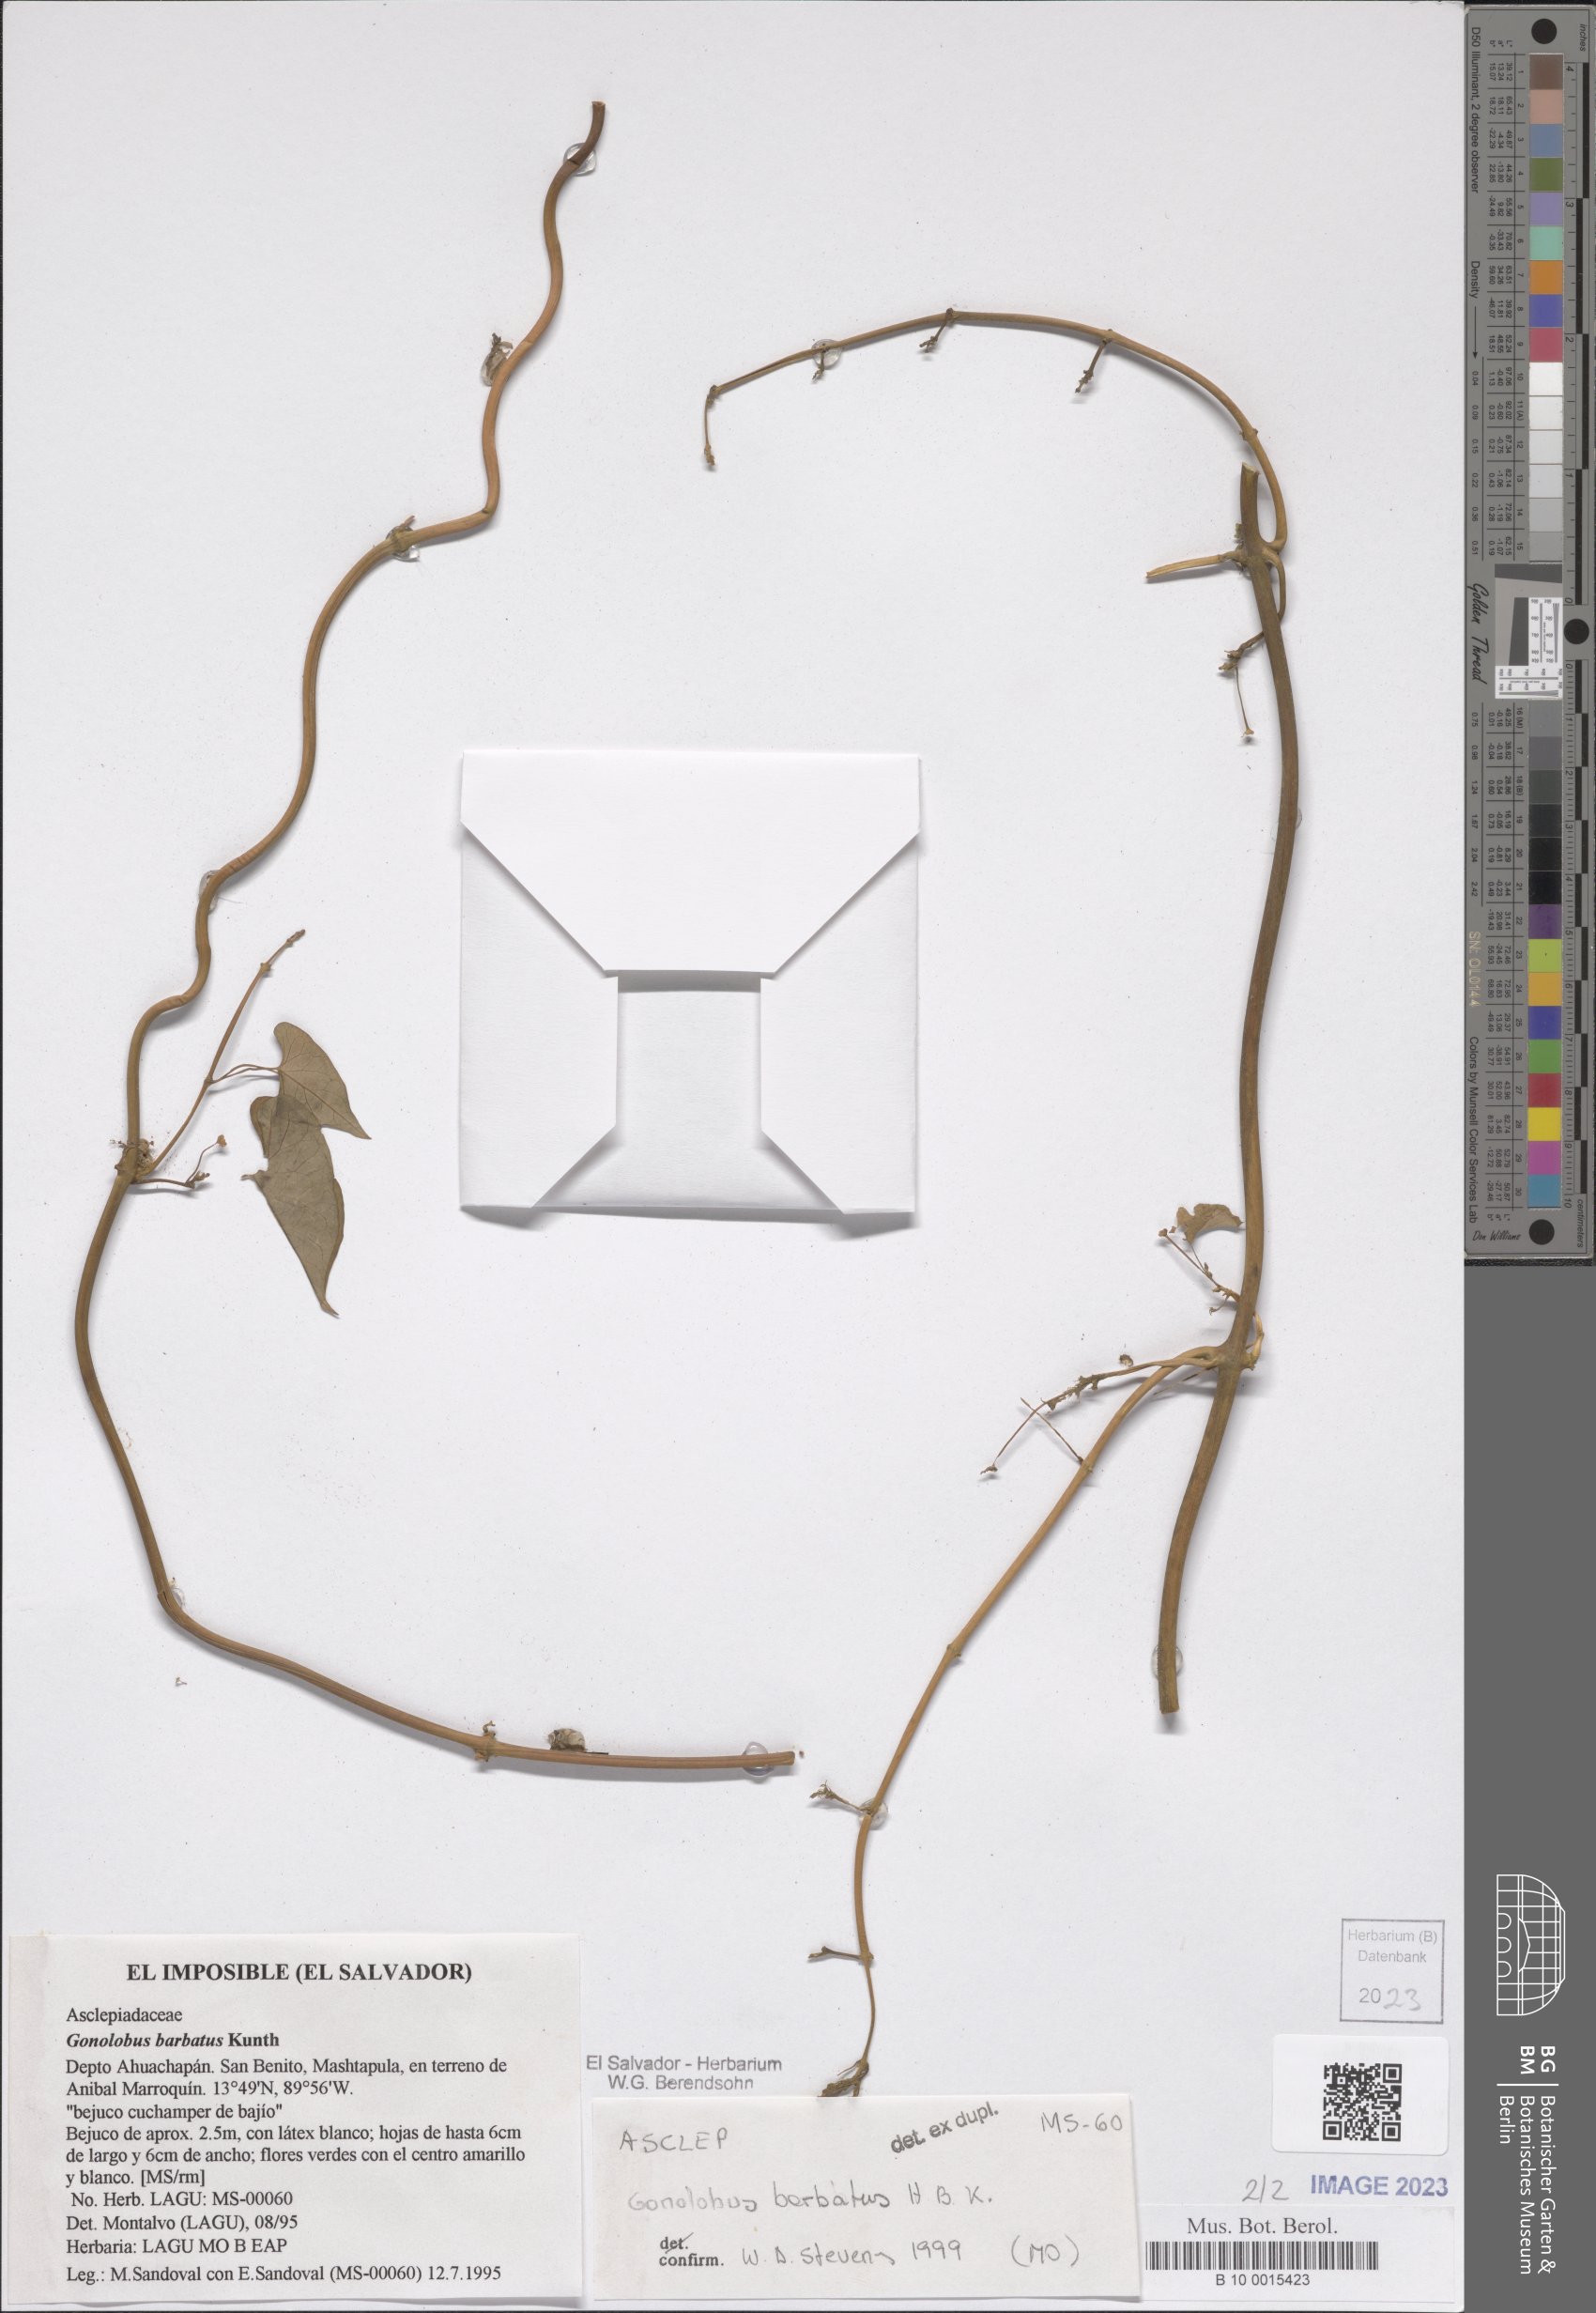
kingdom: Plantae
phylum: Tracheophyta
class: Magnoliopsida
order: Gentianales
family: Apocynaceae
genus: Gonolobus
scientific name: Gonolobus barbatus
